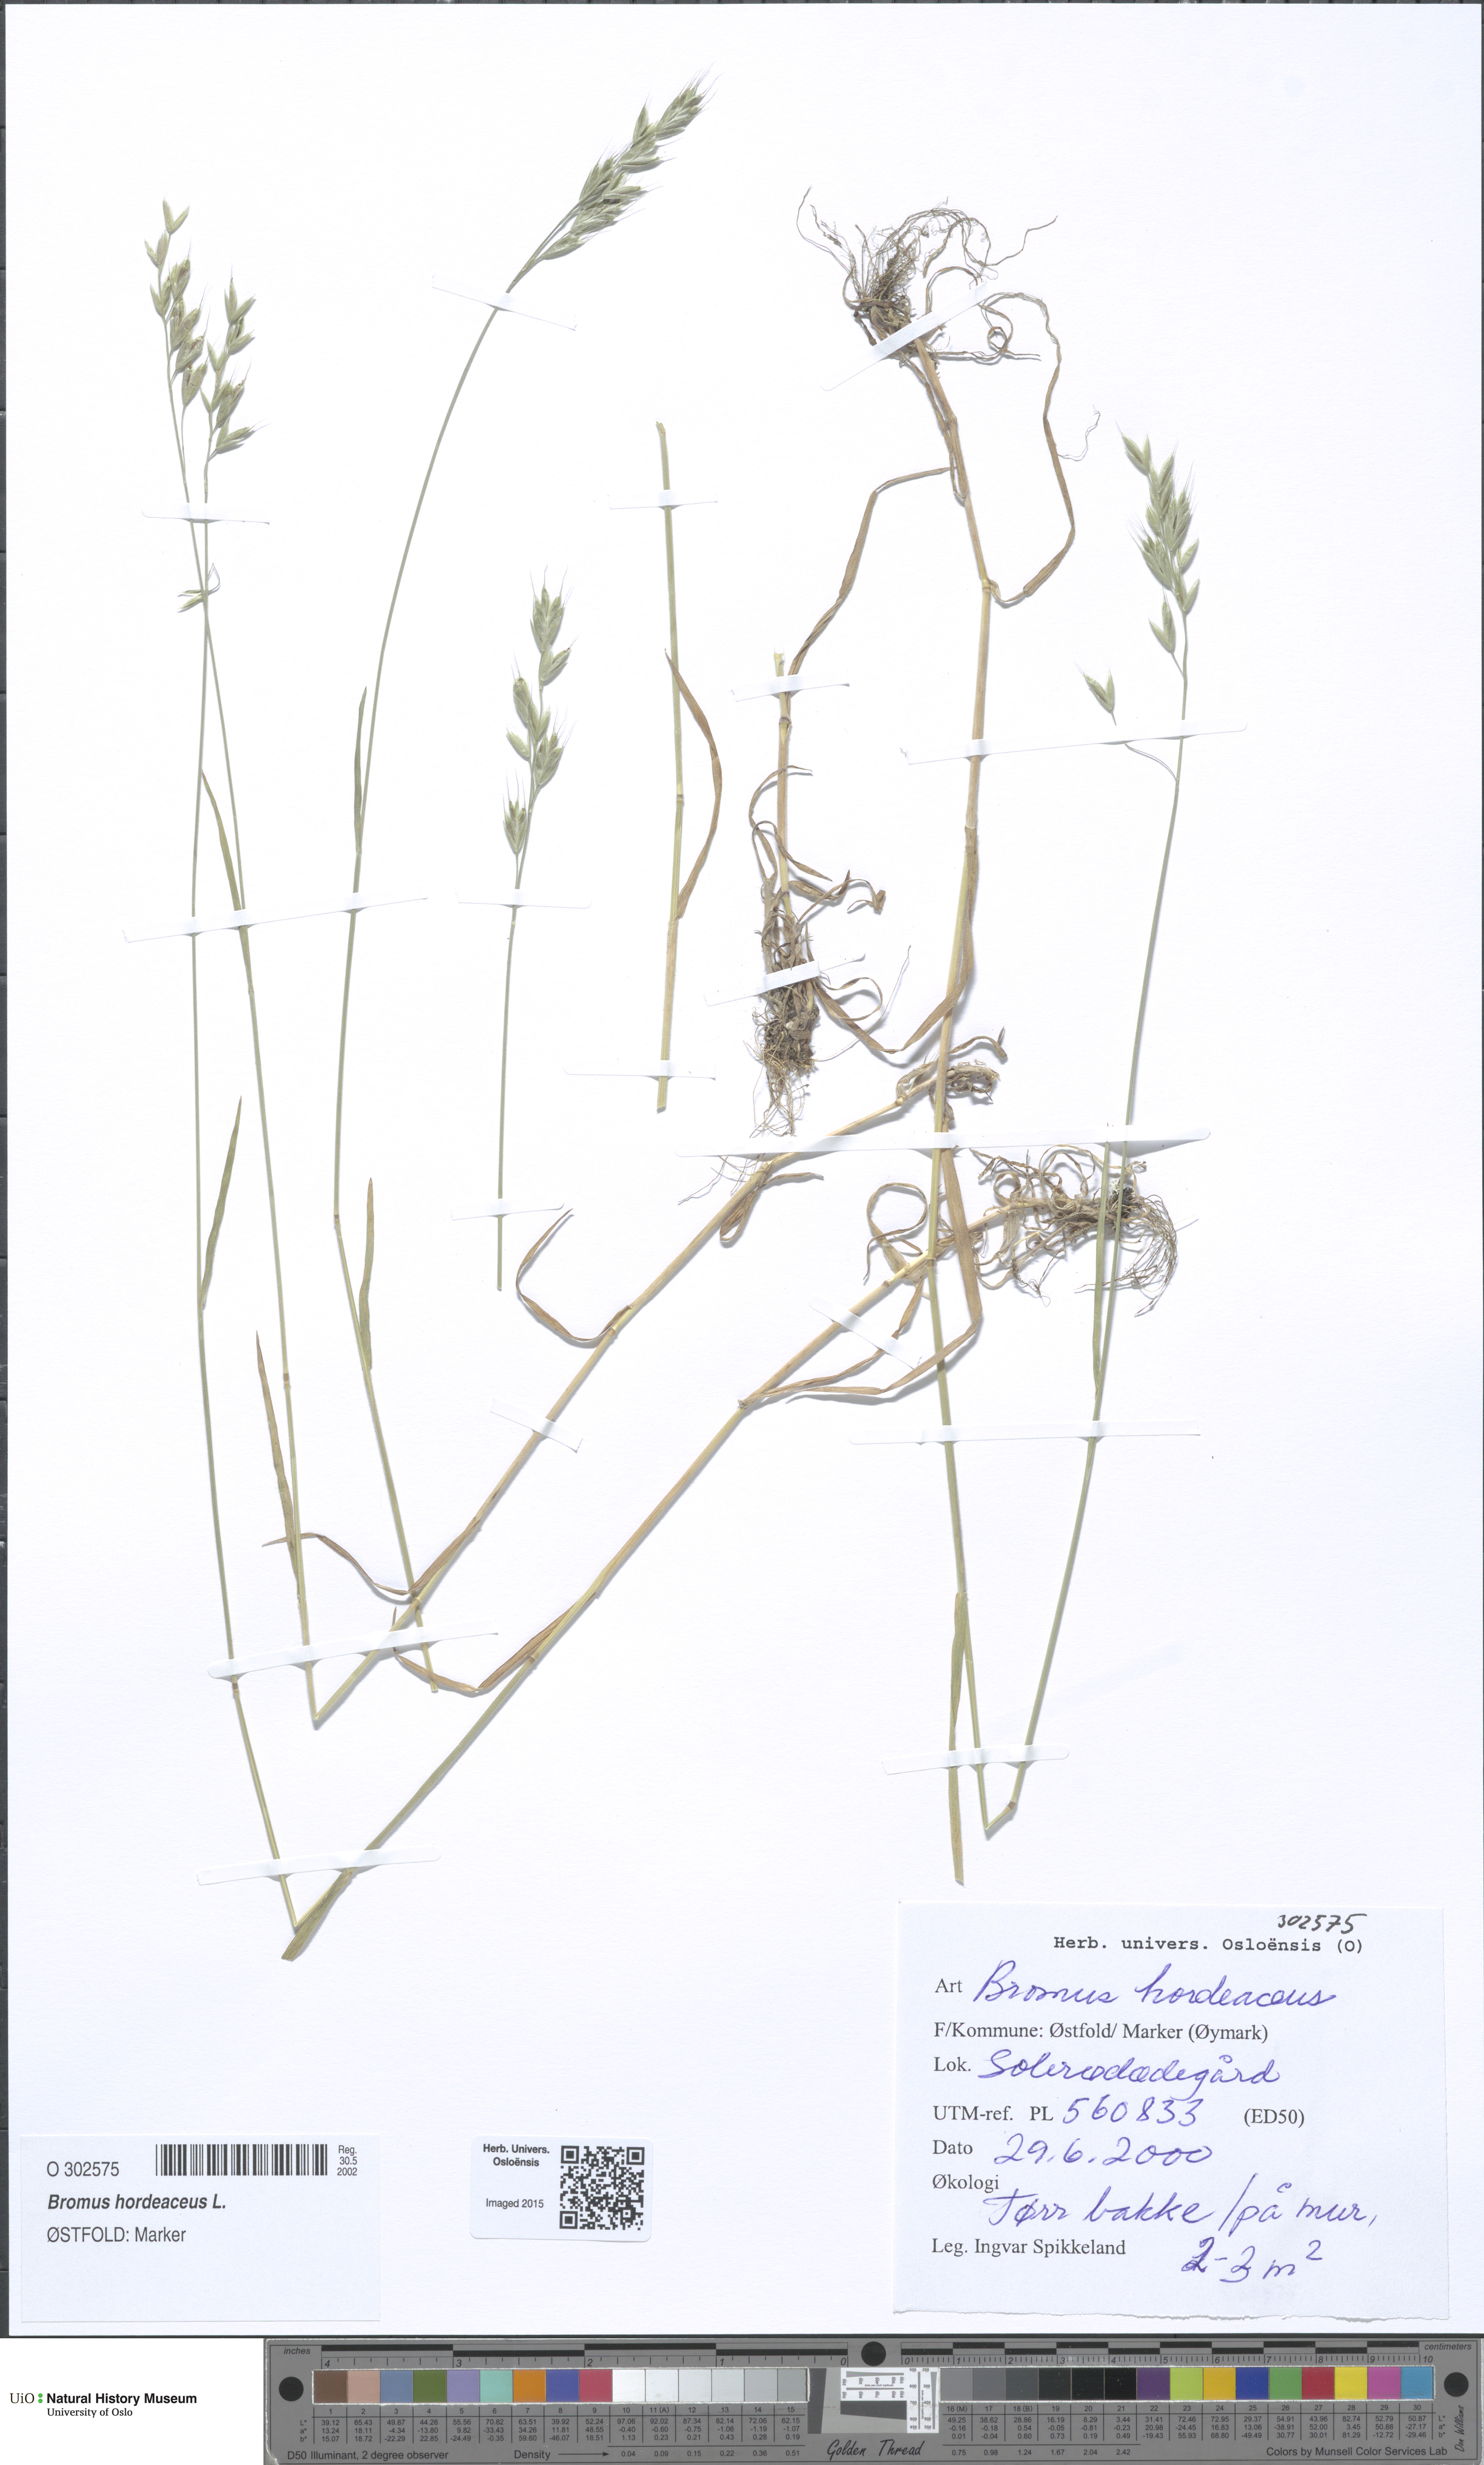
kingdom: Plantae
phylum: Tracheophyta
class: Liliopsida
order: Poales
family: Poaceae
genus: Bromus
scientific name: Bromus hordeaceus
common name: Soft brome
